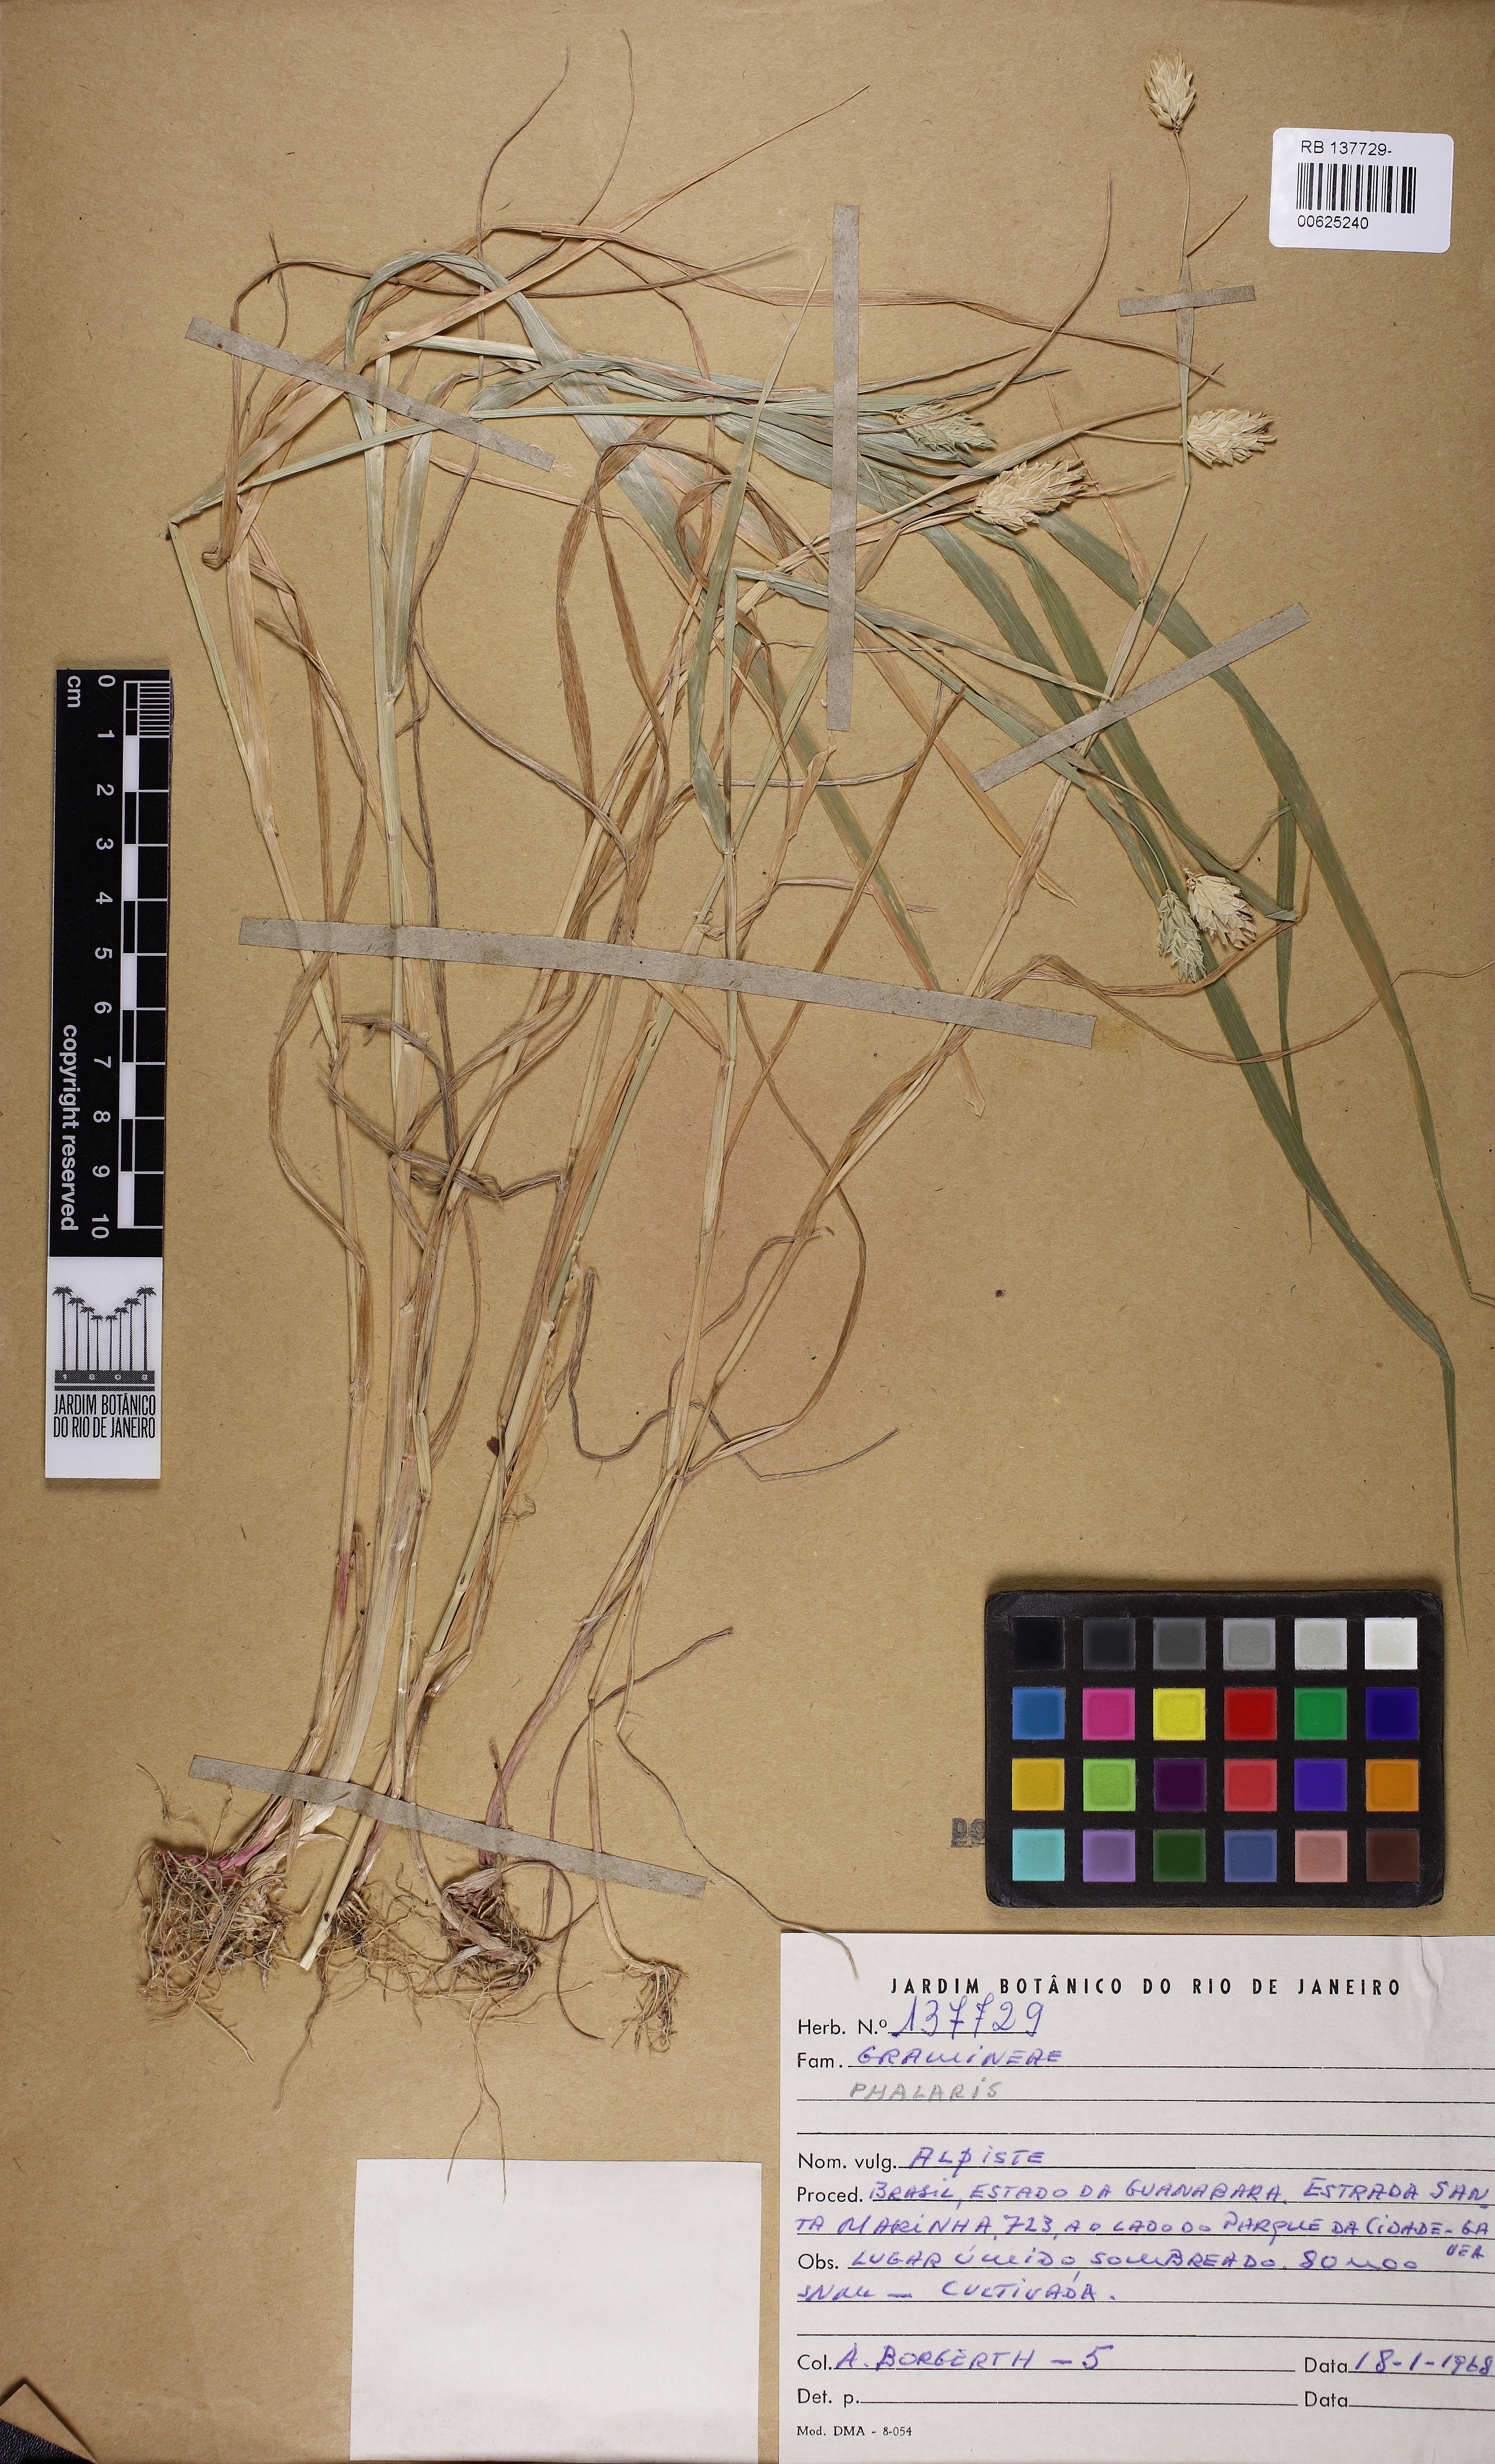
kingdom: Plantae
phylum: Tracheophyta
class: Liliopsida
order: Poales
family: Poaceae
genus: Phalaris
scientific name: Phalaris
